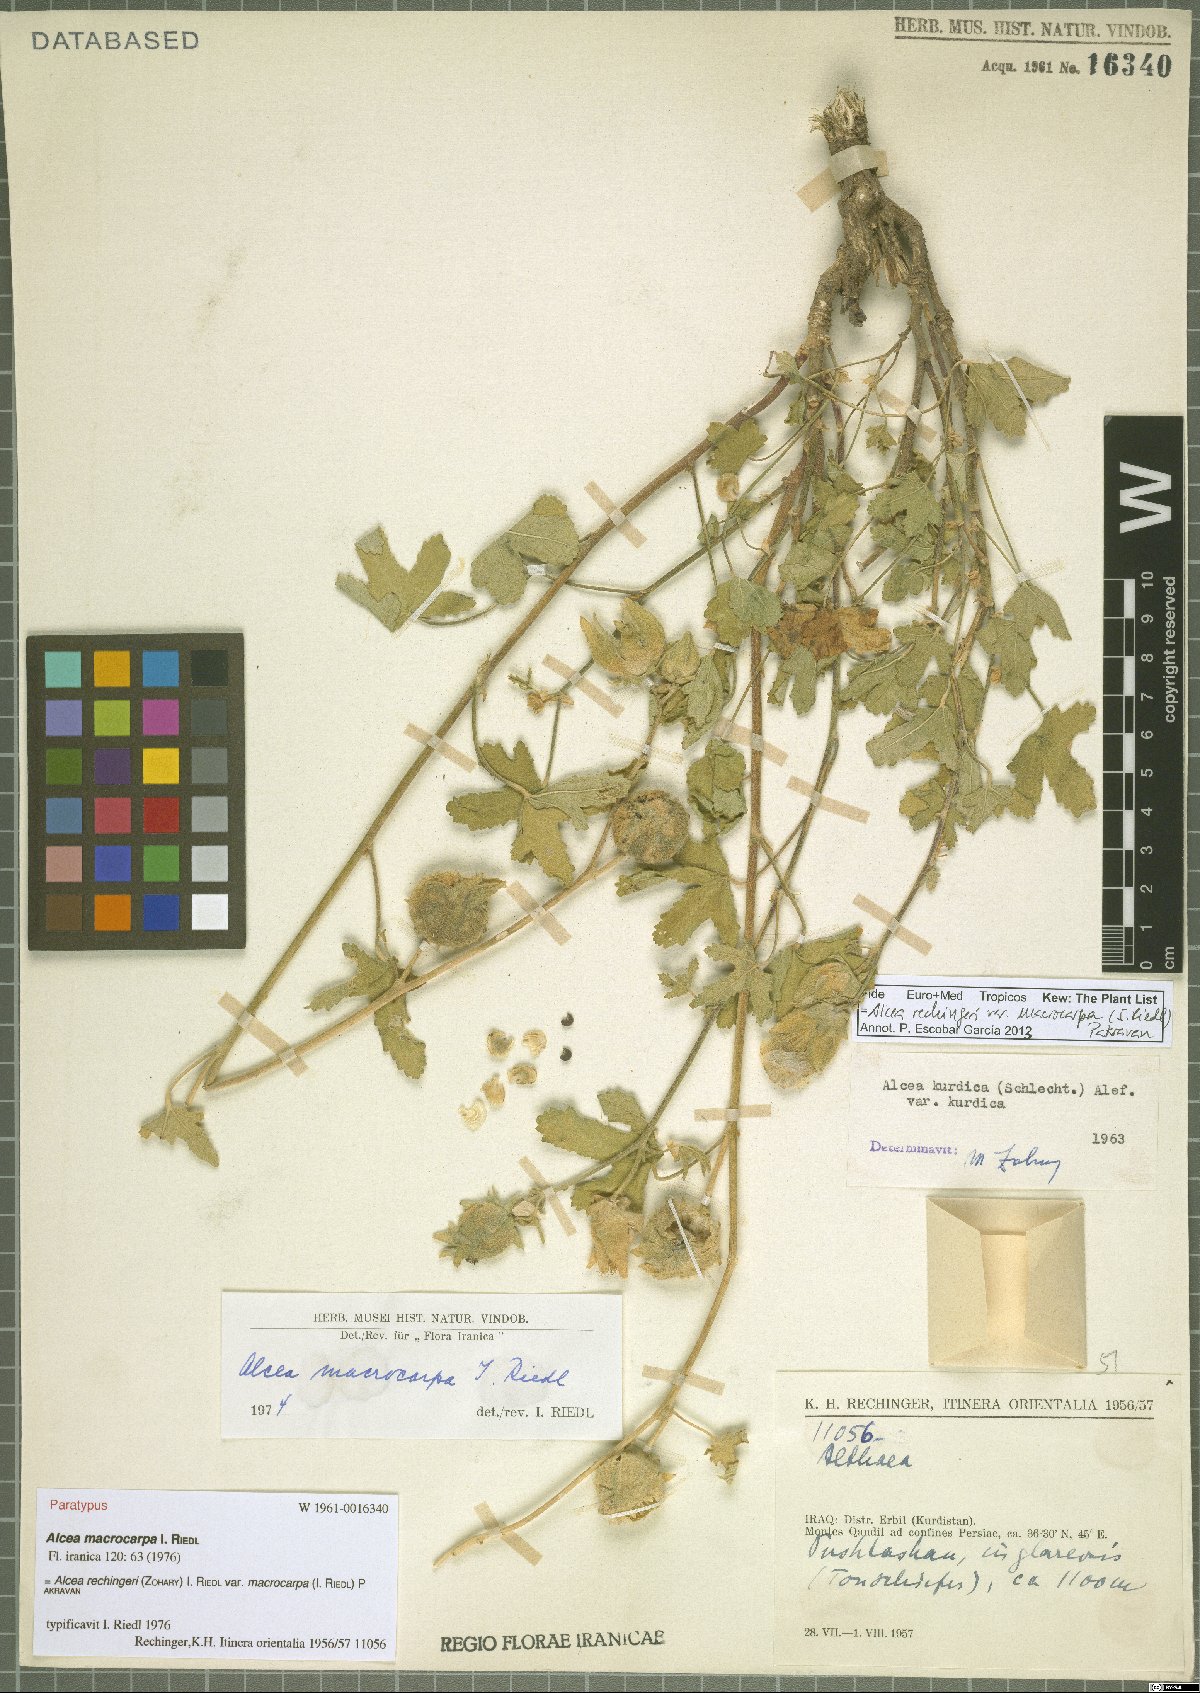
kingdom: Plantae
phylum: Tracheophyta
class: Magnoliopsida
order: Malvales
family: Malvaceae
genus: Alcea
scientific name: Alcea rechingeri
